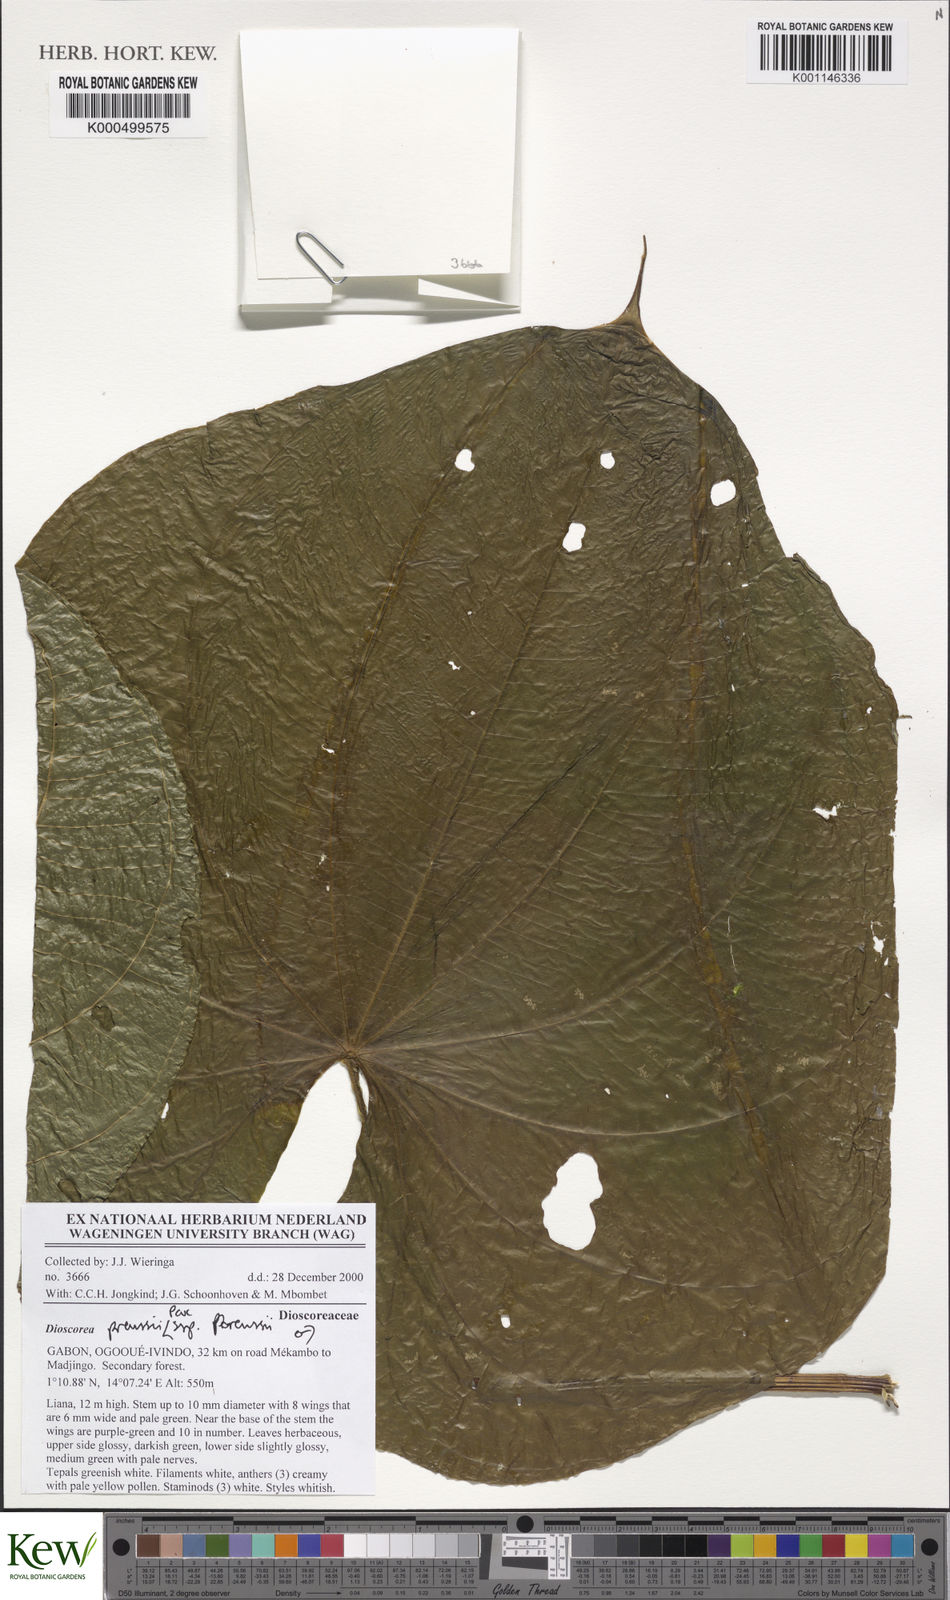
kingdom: Plantae
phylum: Tracheophyta
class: Liliopsida
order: Dioscoreales
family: Dioscoreaceae
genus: Dioscorea
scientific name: Dioscorea preussii
